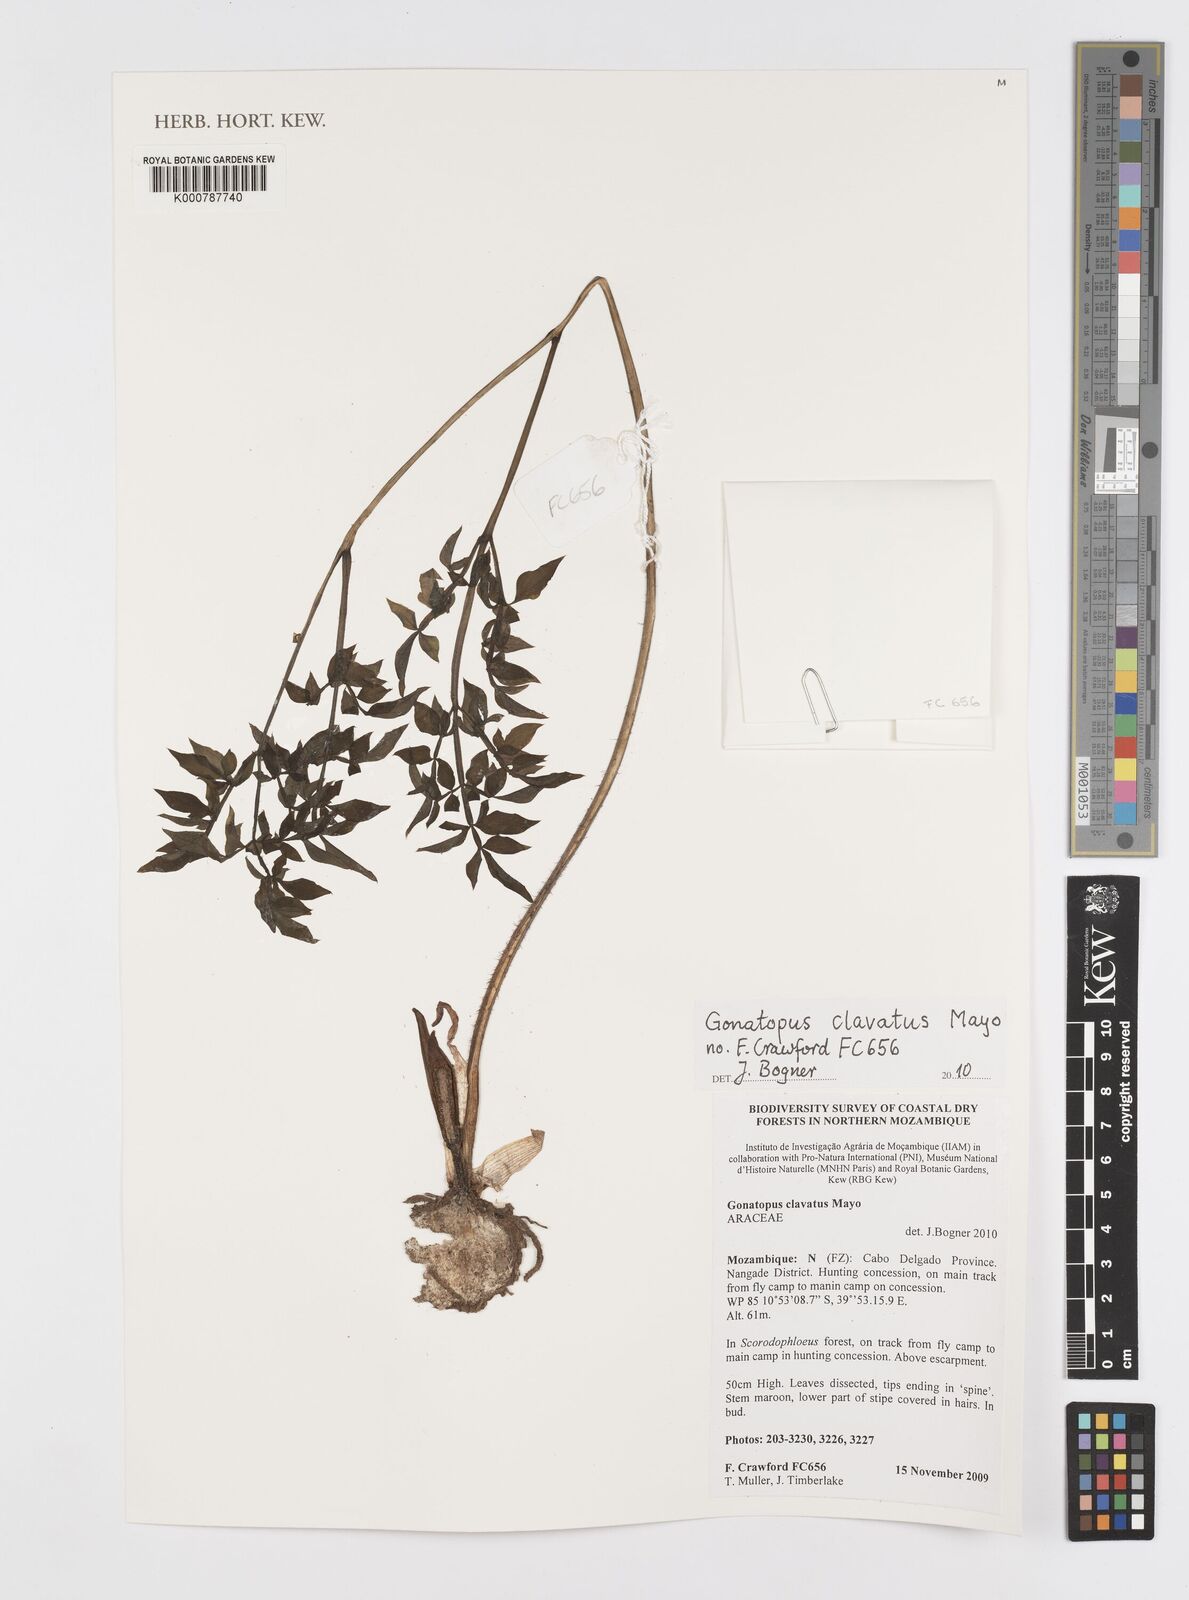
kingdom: Plantae
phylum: Tracheophyta
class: Liliopsida
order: Alismatales
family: Araceae
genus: Gonatopus
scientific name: Gonatopus clavatus
